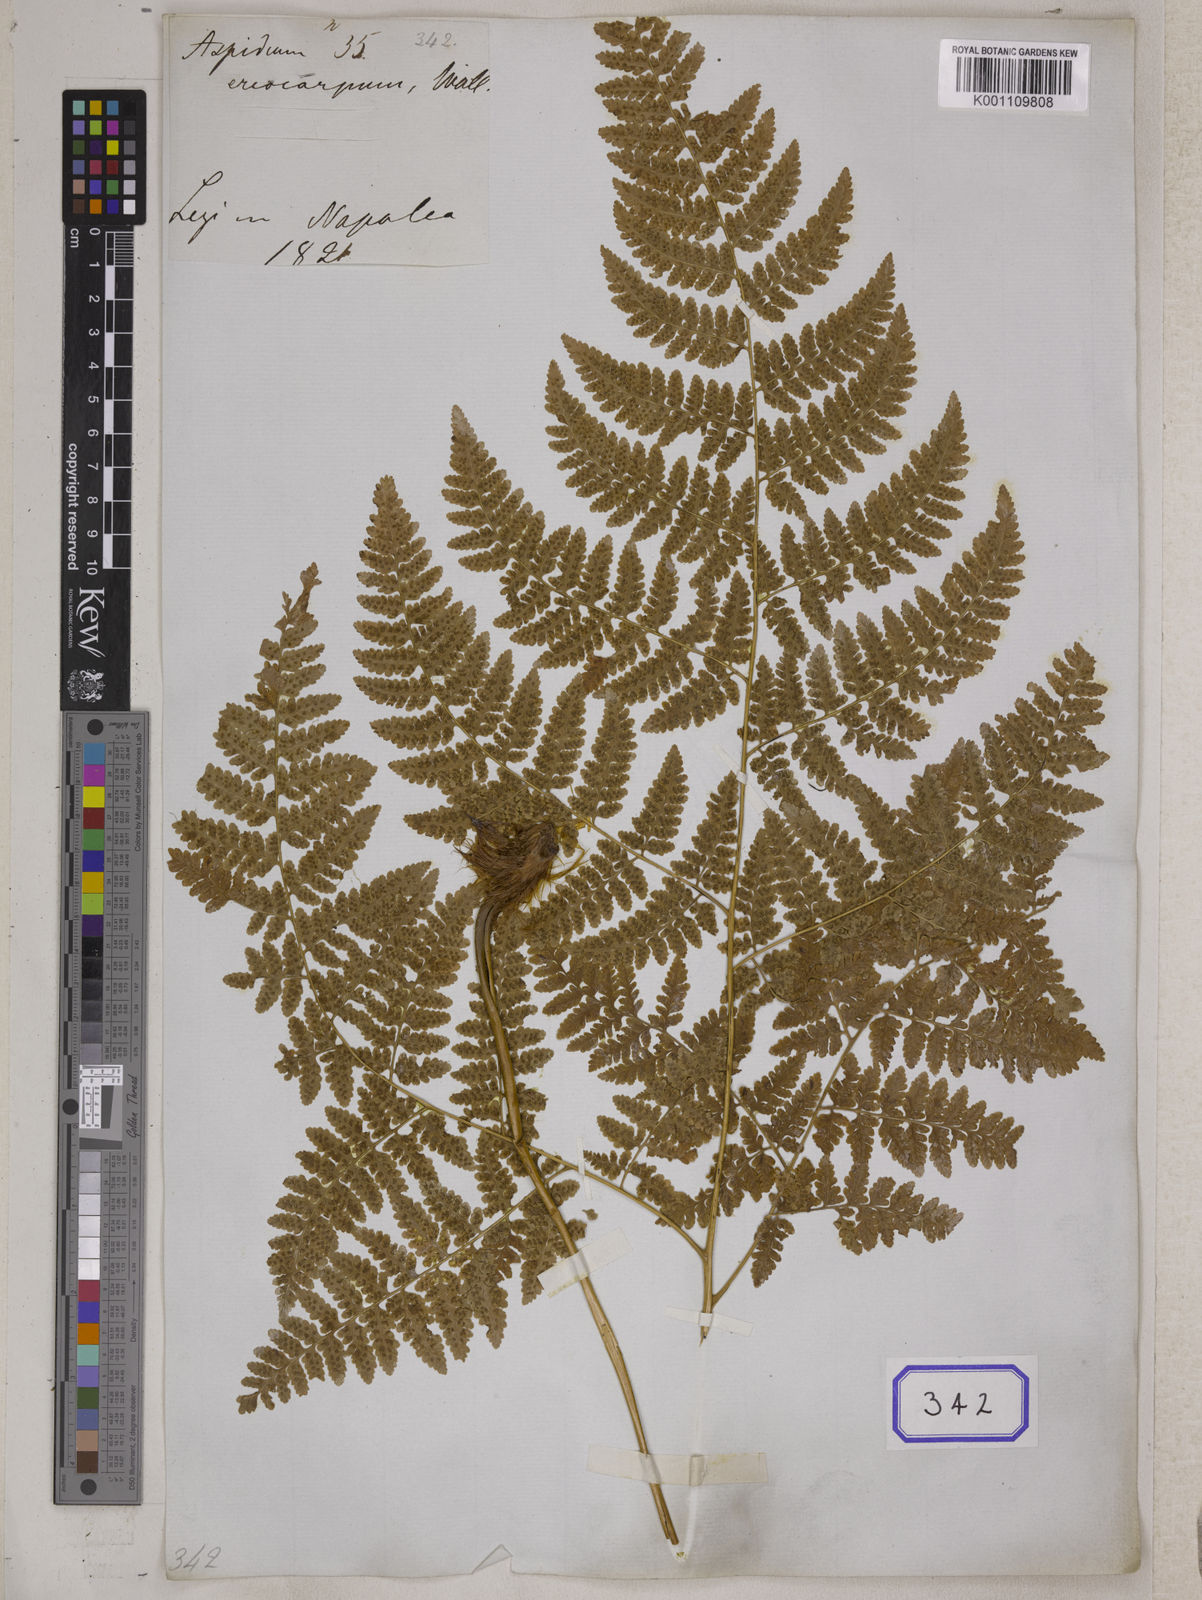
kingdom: Plantae
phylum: Tracheophyta
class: Polypodiopsida
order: Polypodiales
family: Hypodematiaceae
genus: Hypodematium
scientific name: Hypodematium shingii
